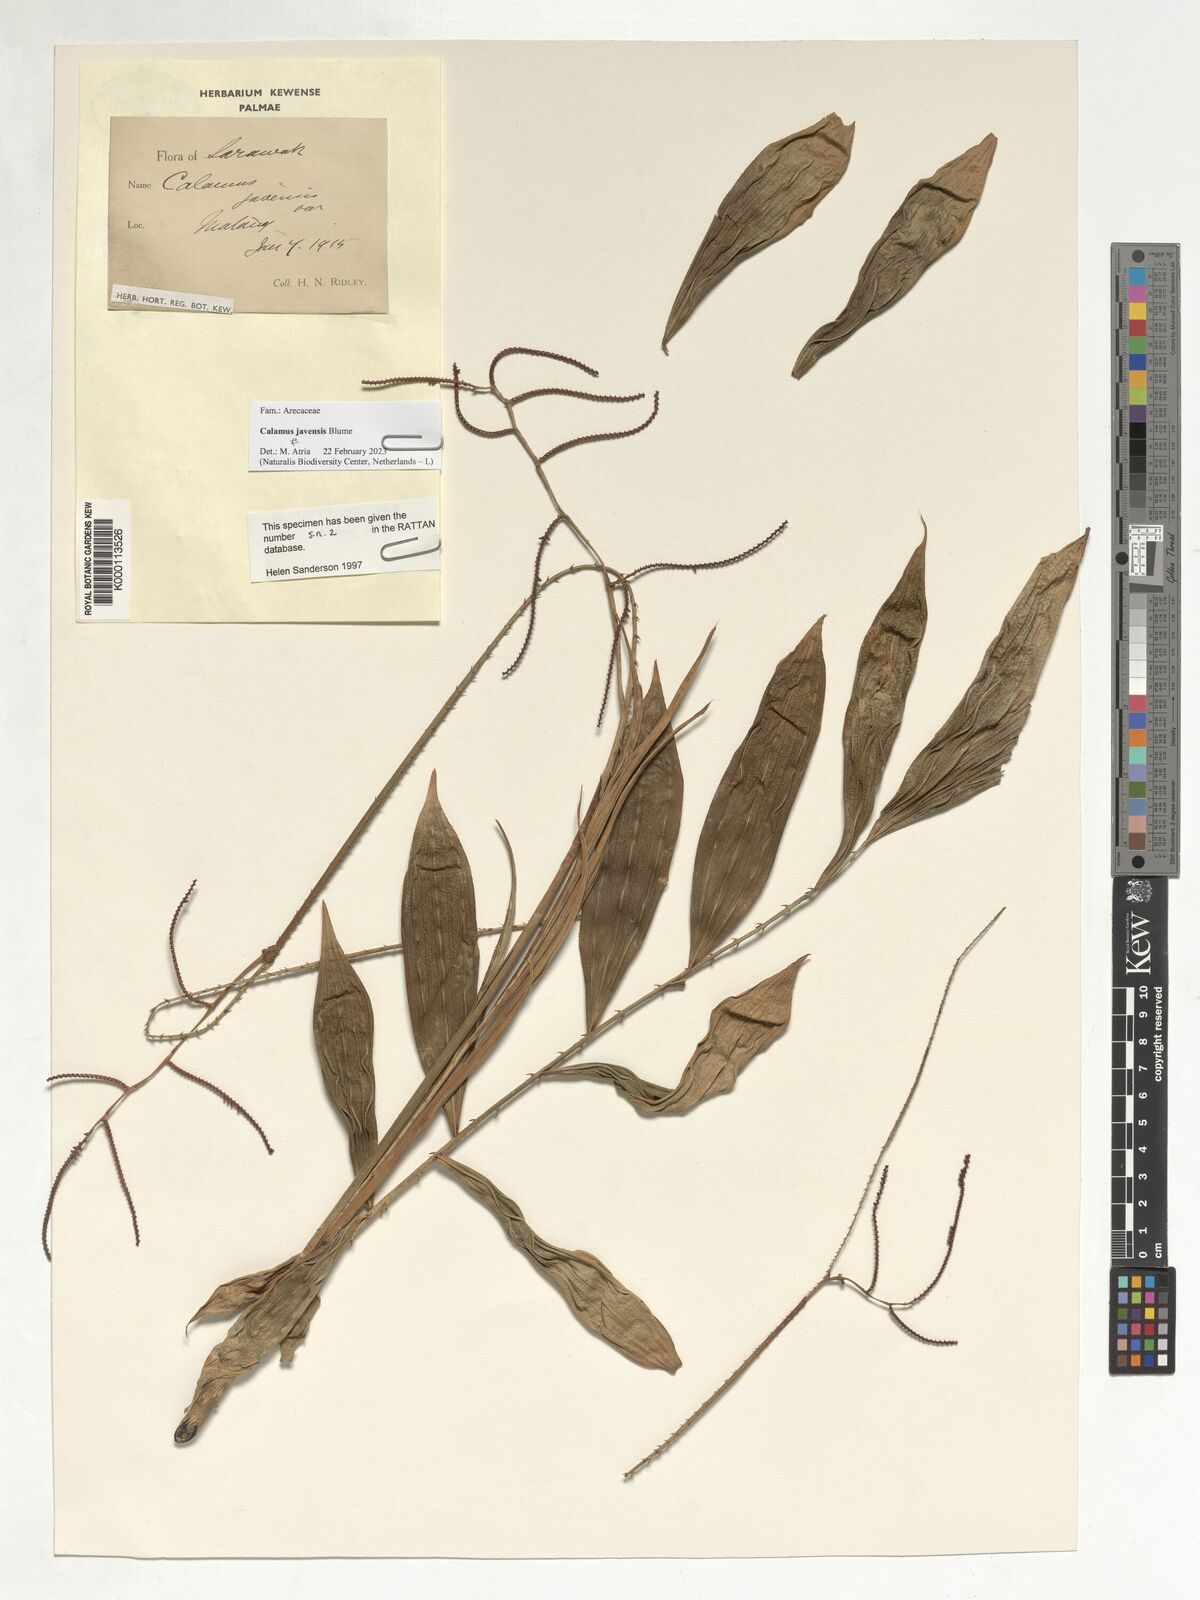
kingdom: Plantae
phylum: Tracheophyta
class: Liliopsida
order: Arecales
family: Arecaceae
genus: Calamus
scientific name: Calamus javensis
